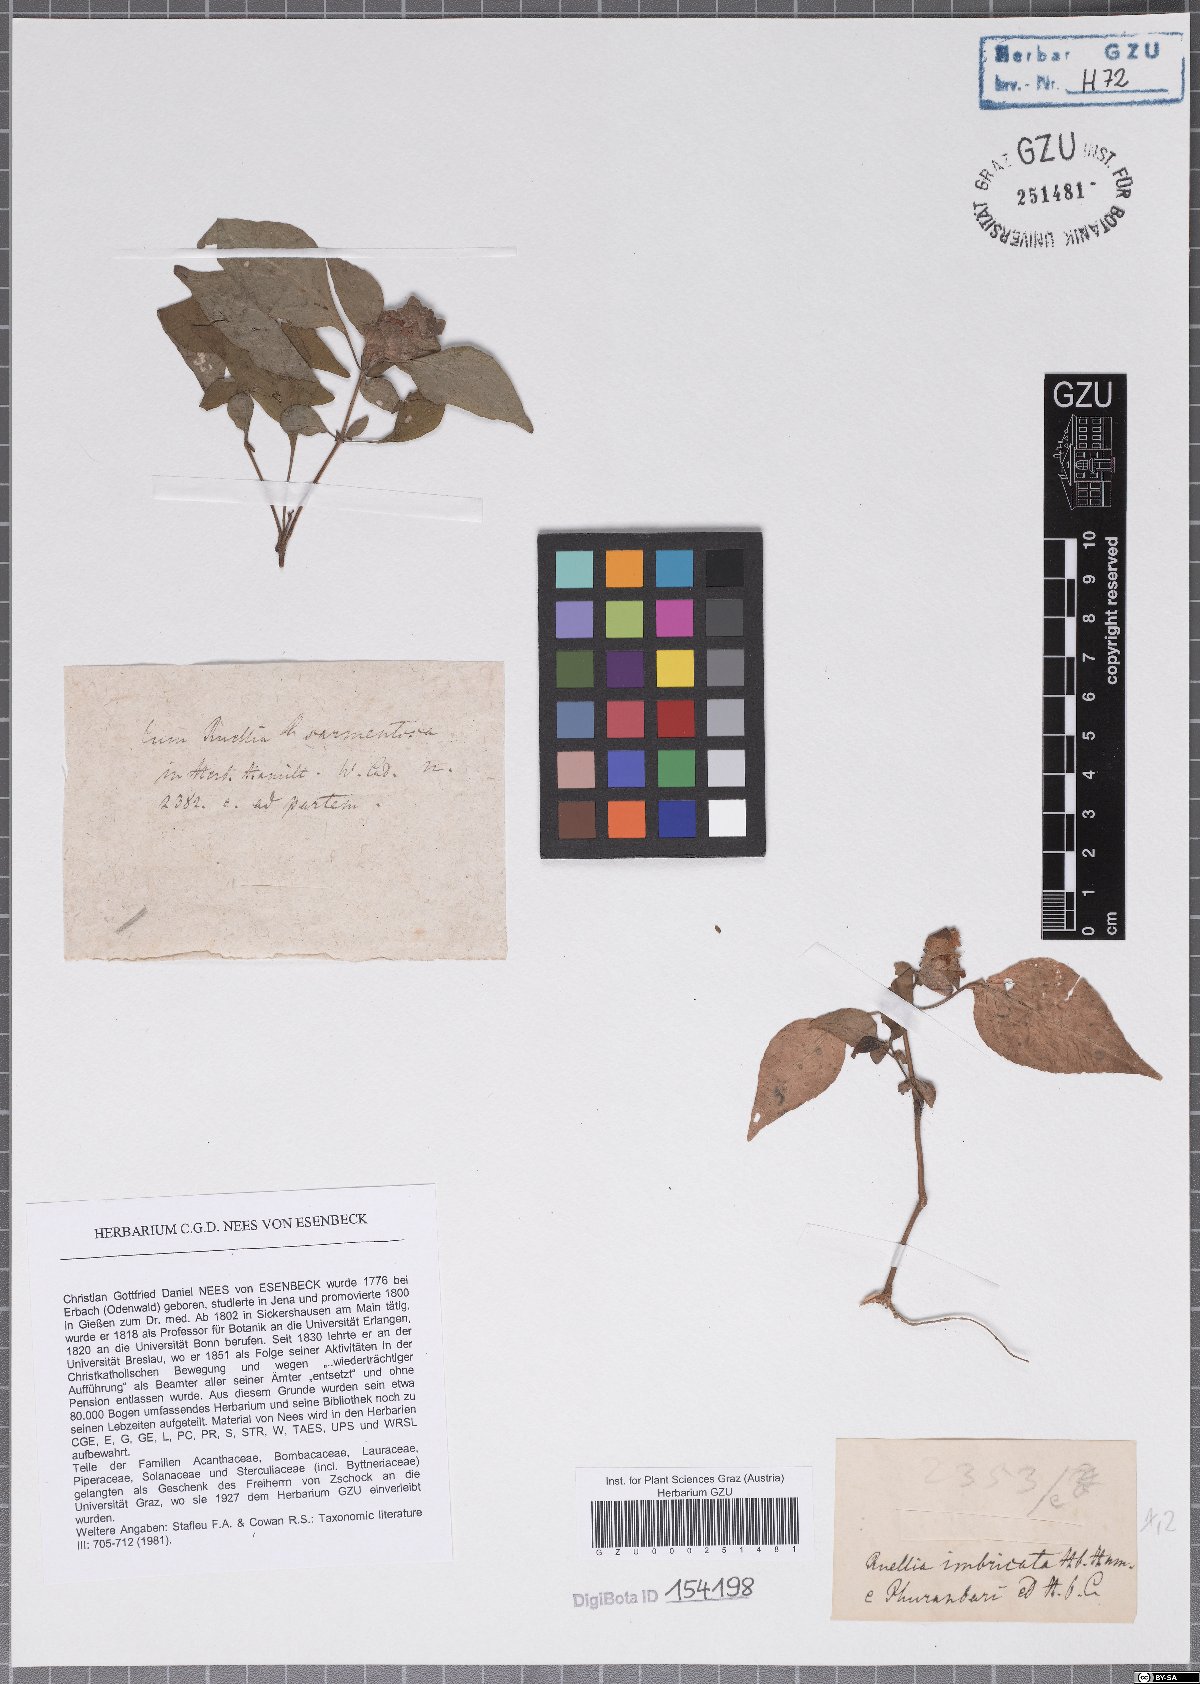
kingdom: Plantae
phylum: Tracheophyta
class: Magnoliopsida
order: Lamiales
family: Acanthaceae
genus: Phaulopsis
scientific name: Phaulopsis dorsiflora
